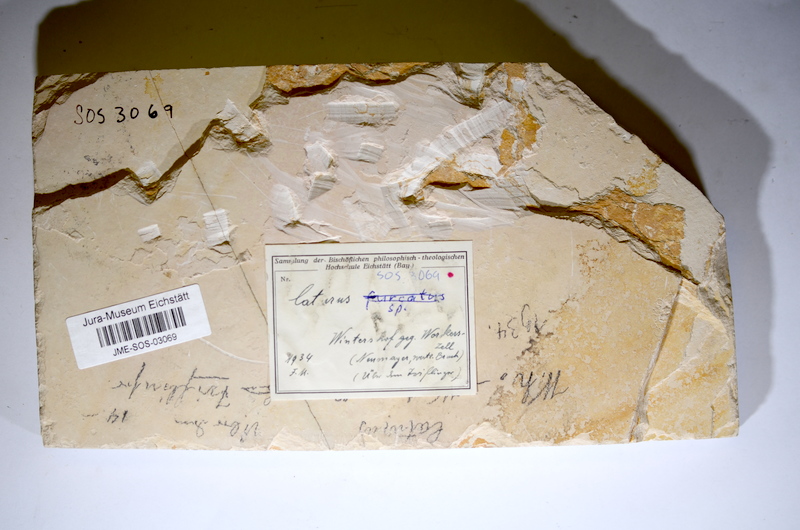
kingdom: Animalia
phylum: Chordata
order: Amiiformes
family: Caturidae
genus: Caturus
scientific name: Caturus
